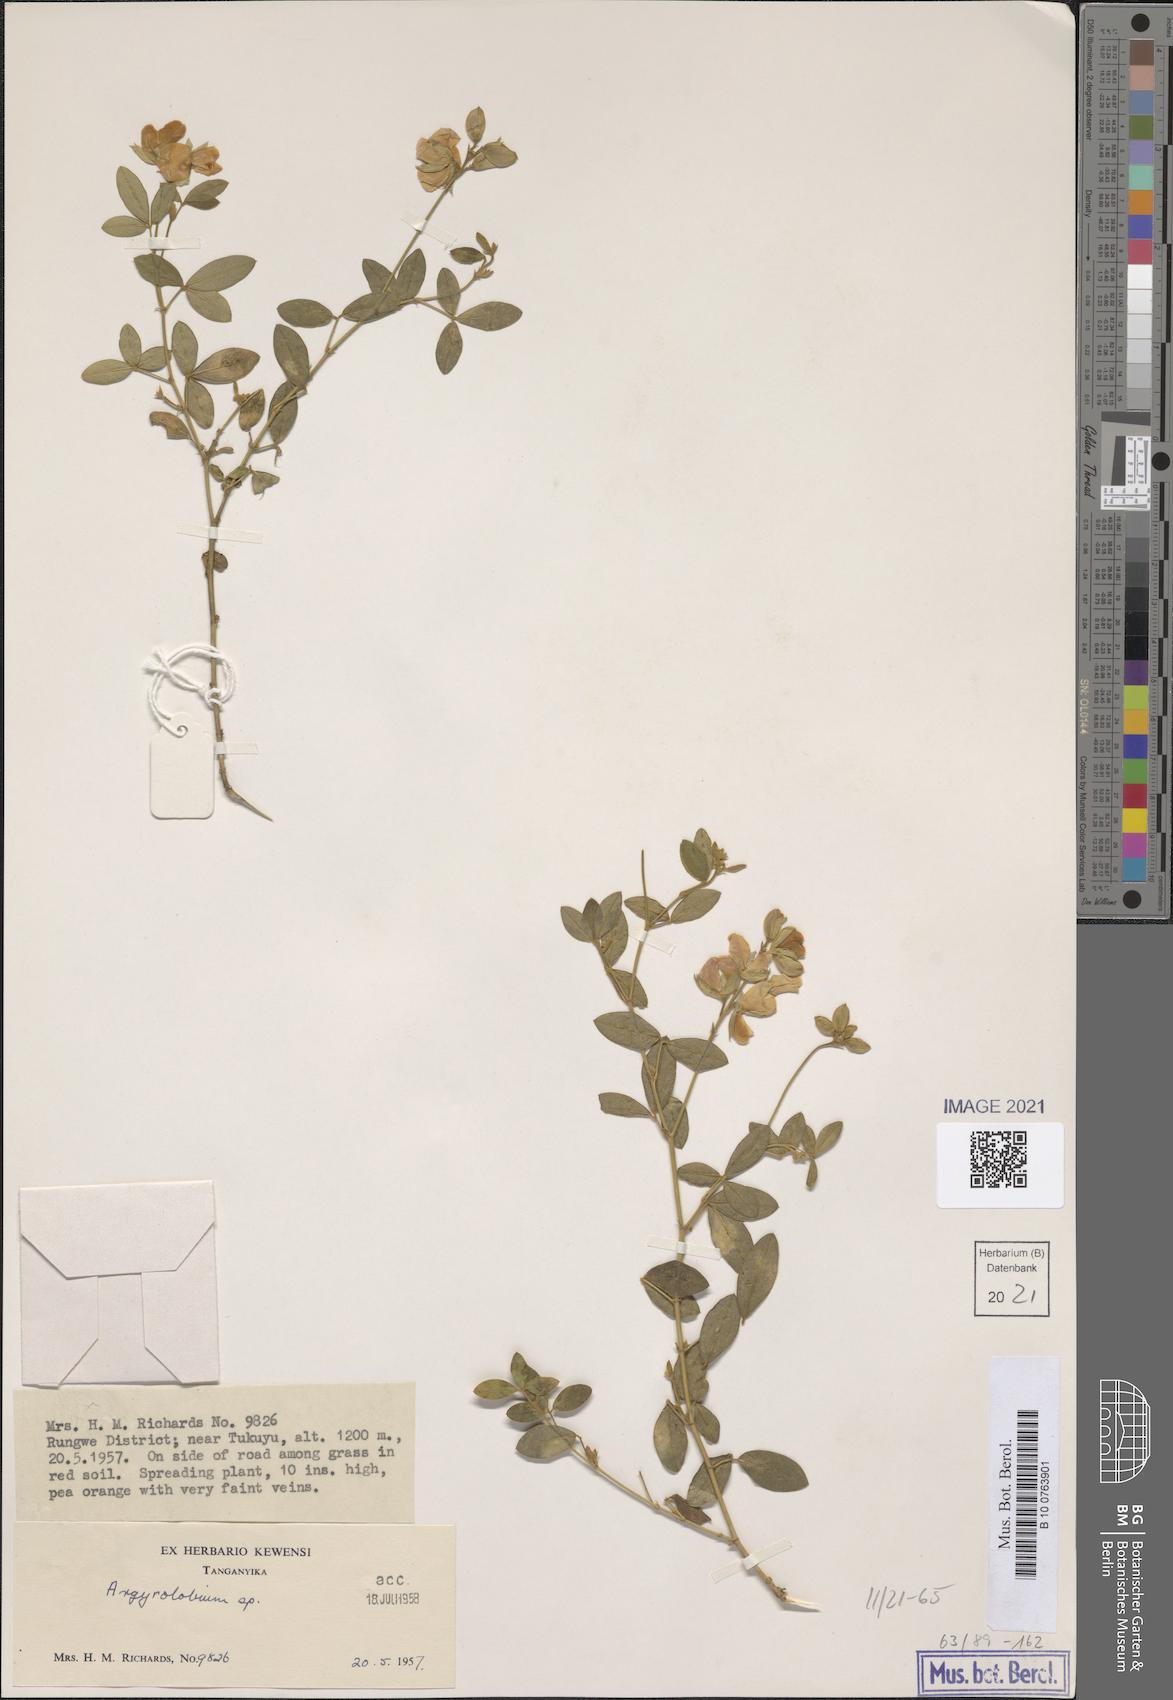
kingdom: Plantae
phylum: Tracheophyta
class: Magnoliopsida
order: Fabales
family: Fabaceae
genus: Argyrolobium
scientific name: Argyrolobium
